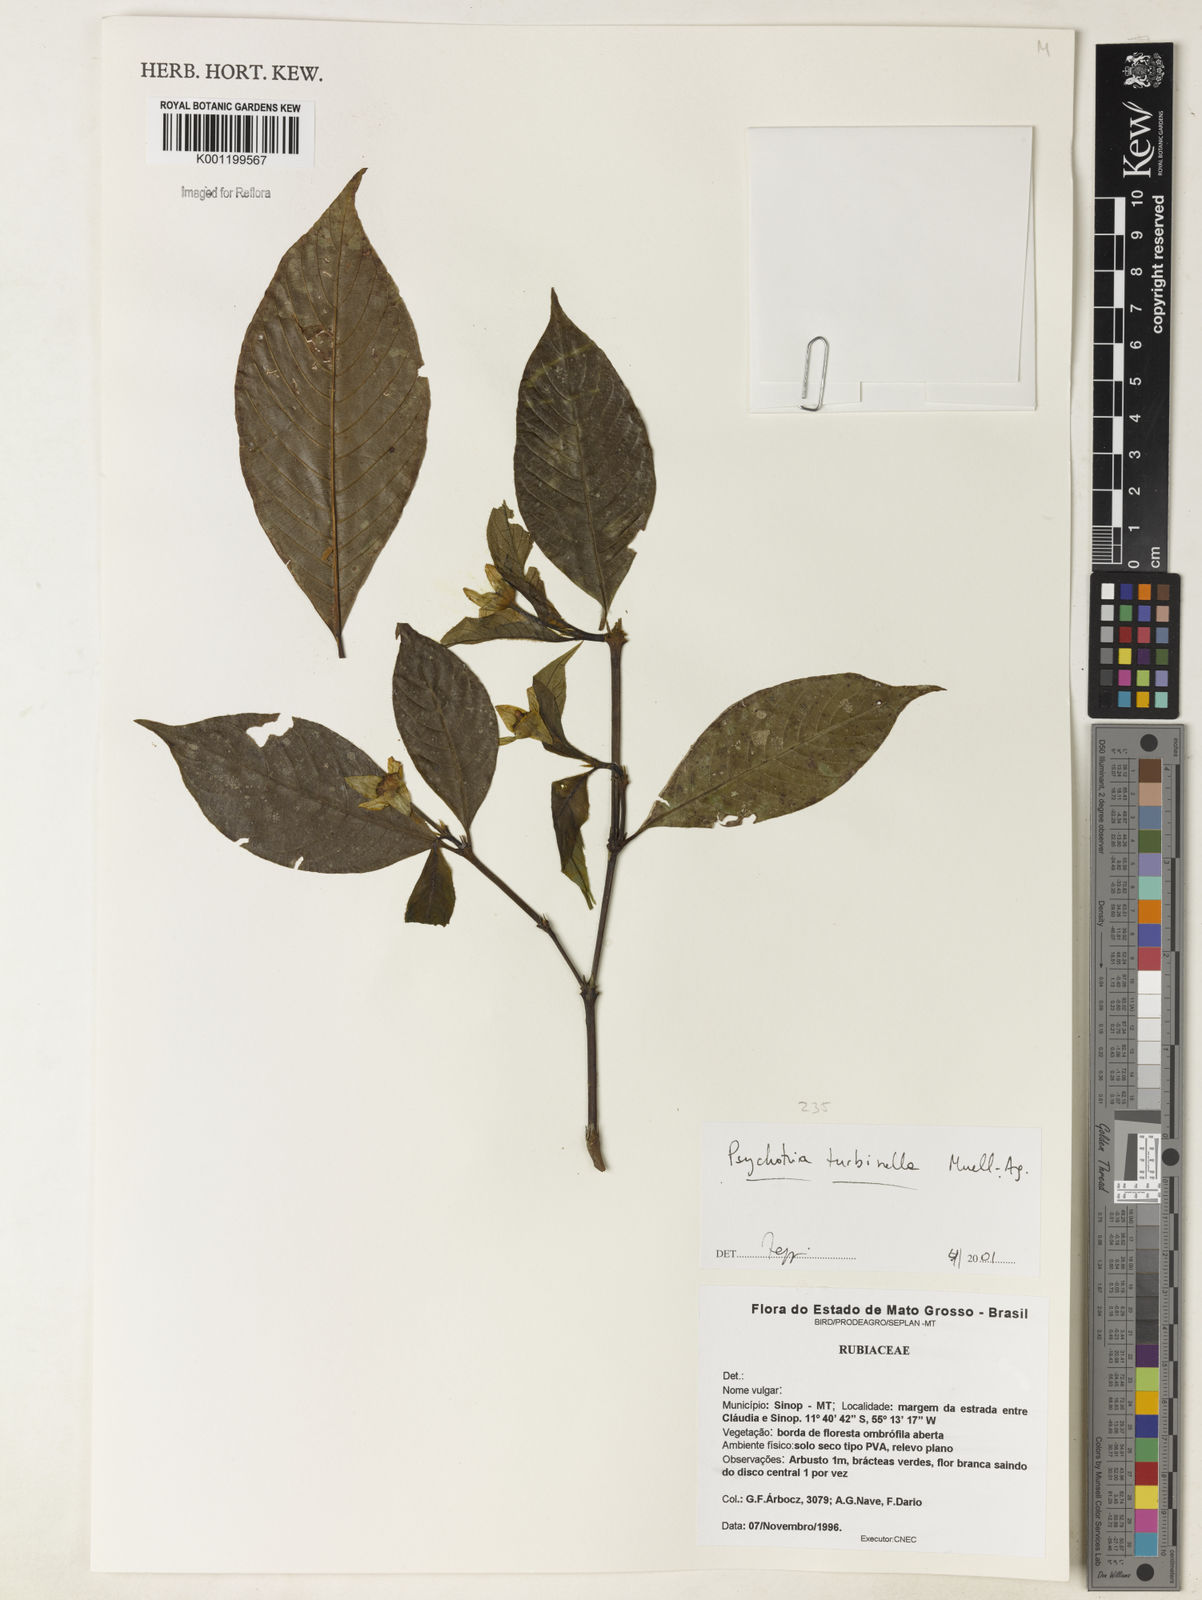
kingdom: Plantae
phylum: Tracheophyta
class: Magnoliopsida
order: Gentianales
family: Rubiaceae
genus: Psychotria
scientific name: Psychotria
